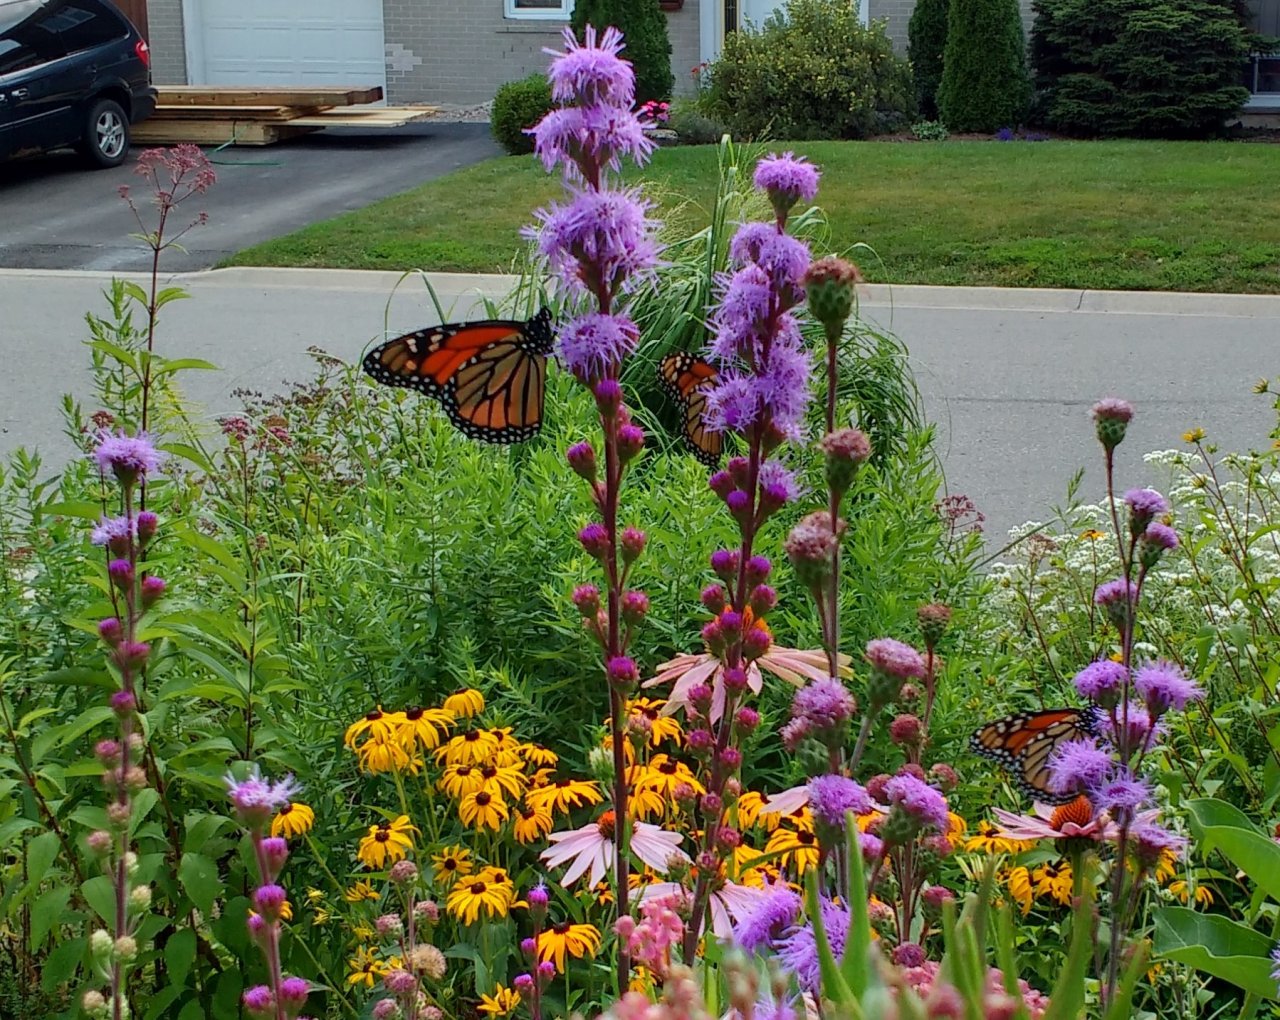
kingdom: Animalia
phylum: Arthropoda
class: Insecta
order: Lepidoptera
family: Nymphalidae
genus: Danaus
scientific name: Danaus plexippus
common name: Monarch
